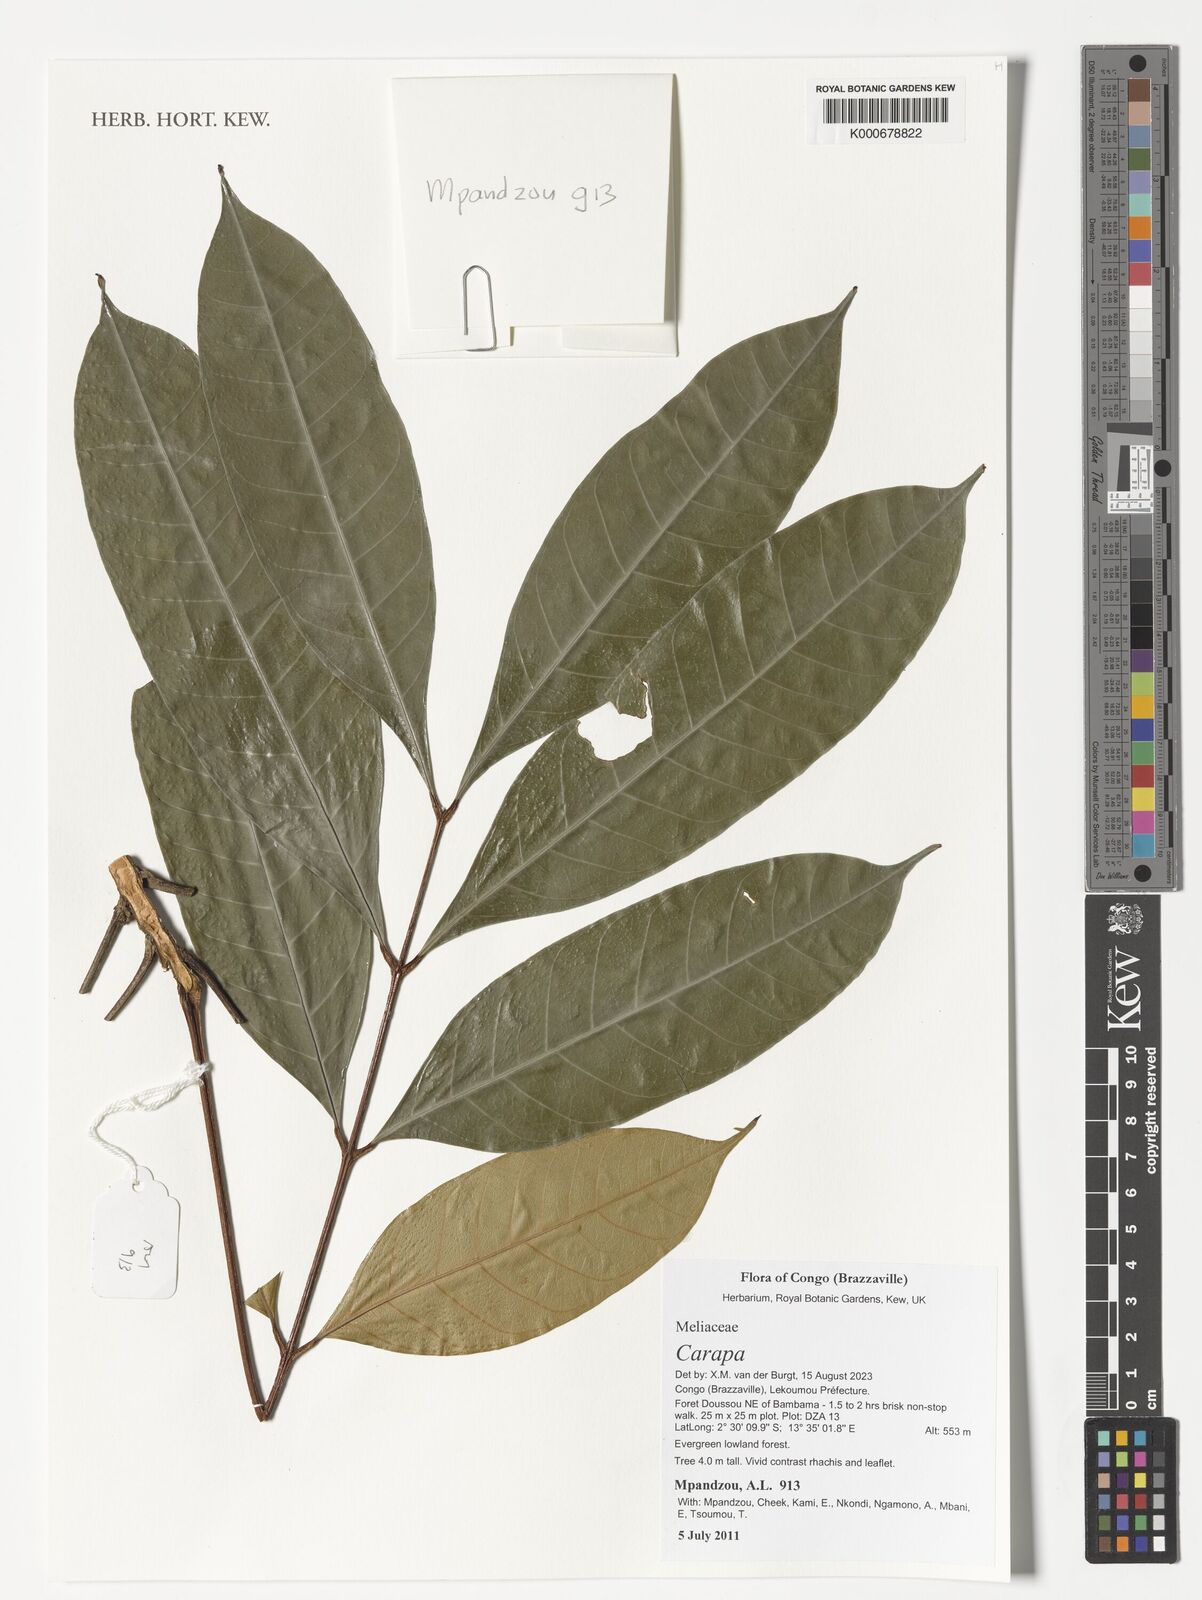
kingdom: Plantae
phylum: Tracheophyta
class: Magnoliopsida
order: Sapindales
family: Meliaceae
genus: Carapa
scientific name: Carapa
